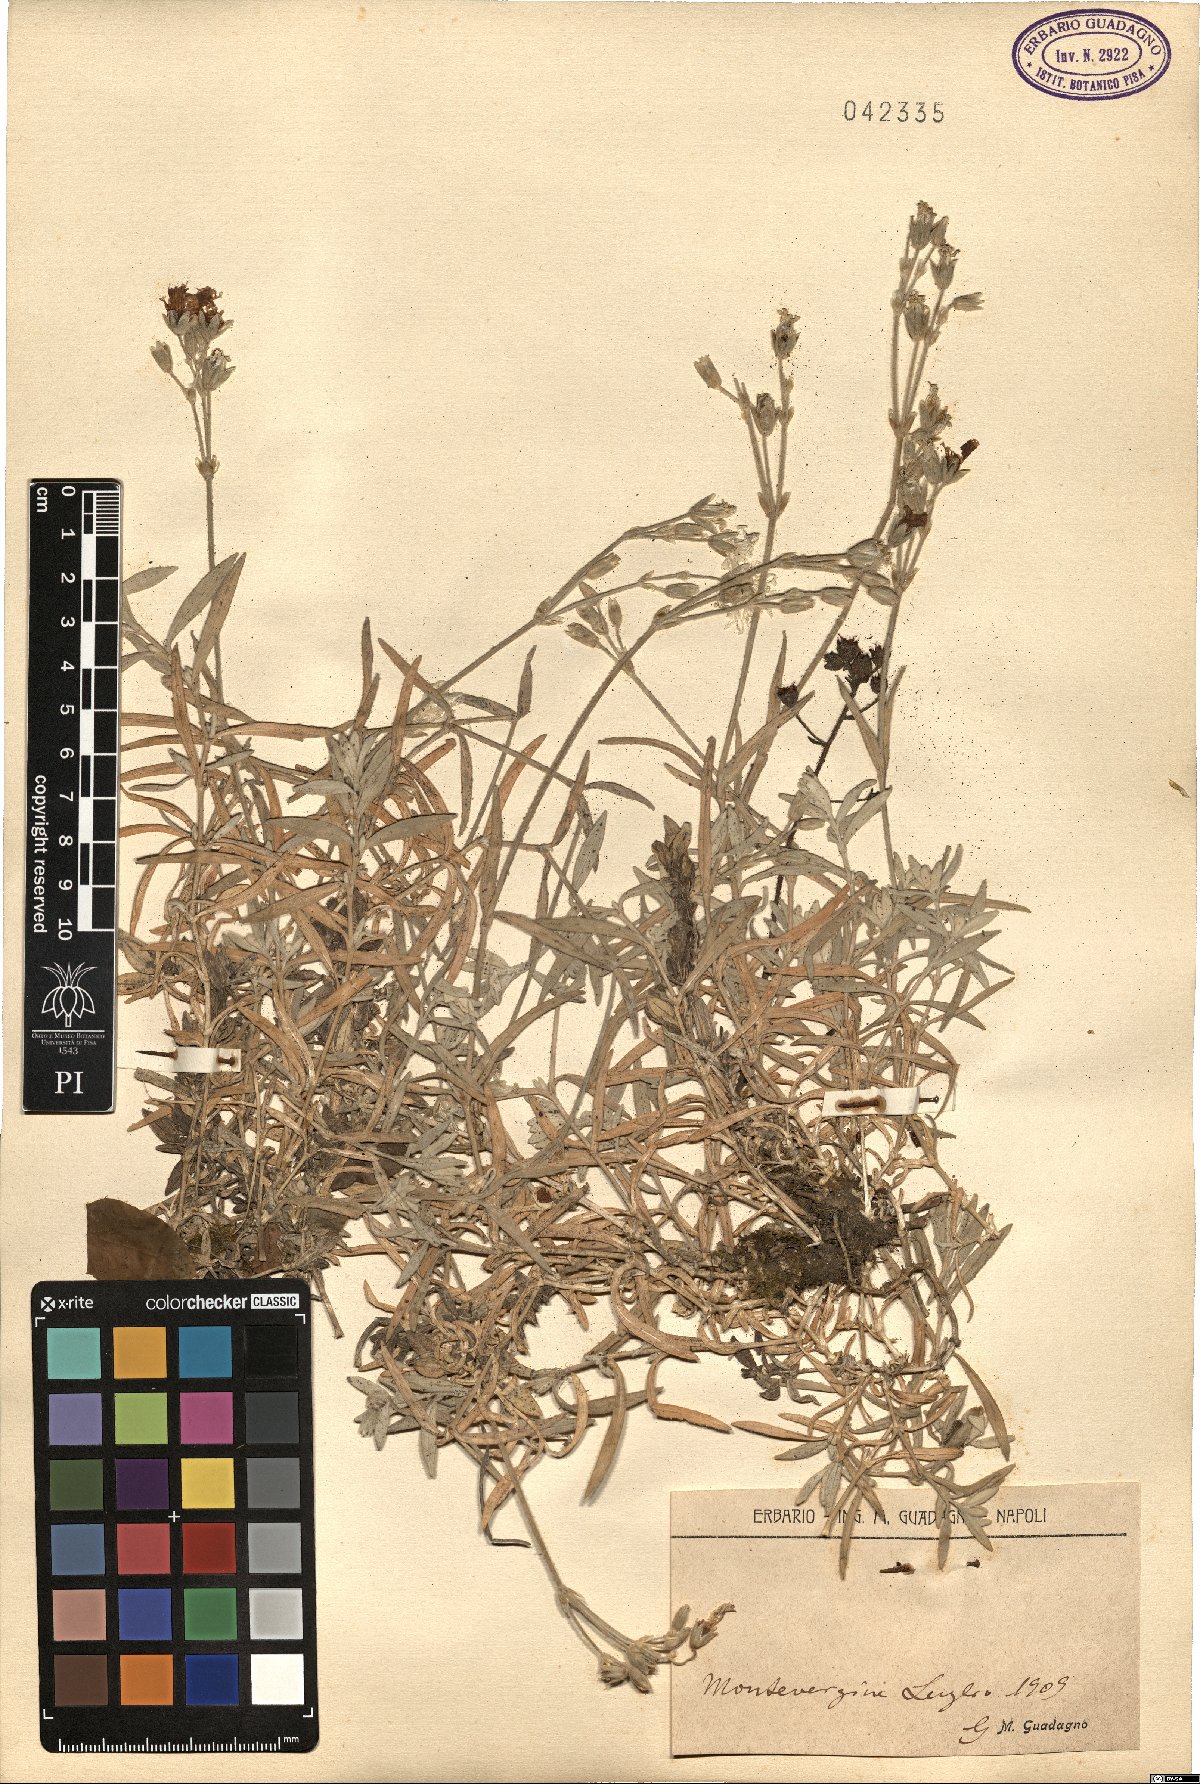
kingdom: Plantae
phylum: Tracheophyta
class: Magnoliopsida
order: Caryophyllales
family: Caryophyllaceae
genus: Cerastium
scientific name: Cerastium
